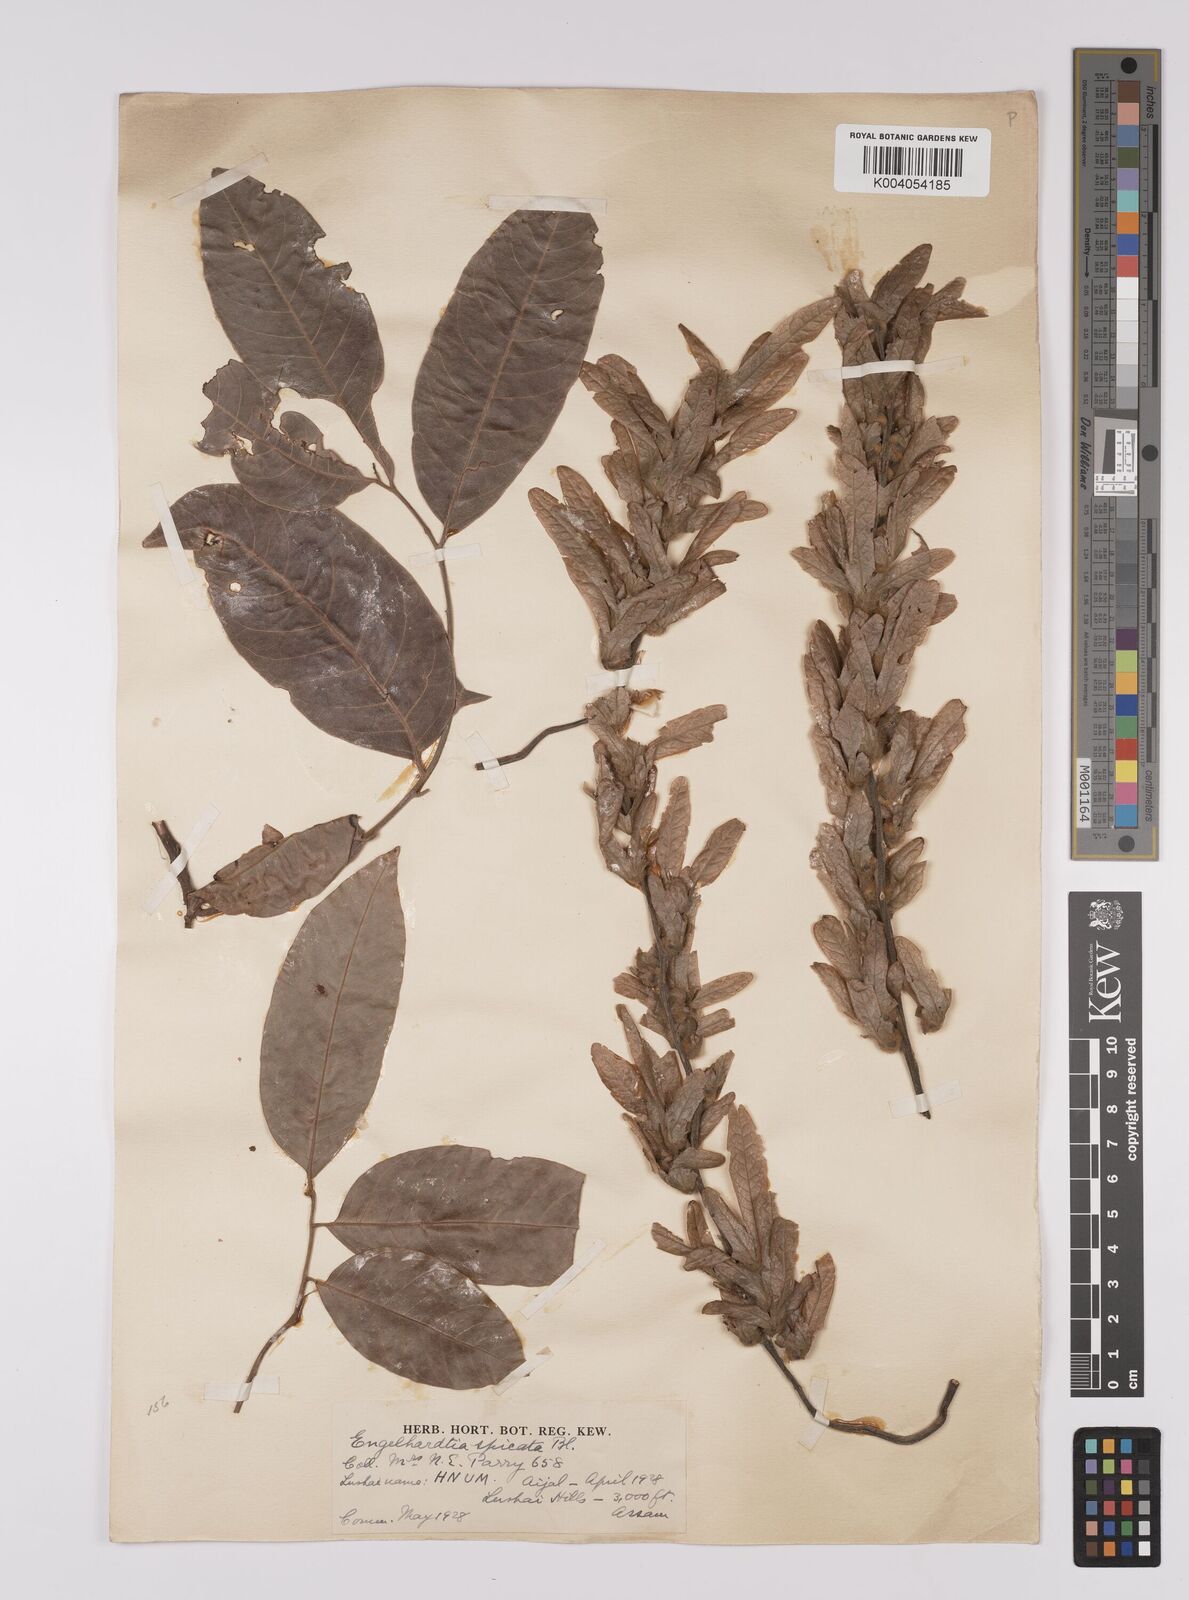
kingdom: Plantae
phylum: Tracheophyta
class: Magnoliopsida
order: Fagales
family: Juglandaceae
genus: Engelhardia
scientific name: Engelhardia spicata
